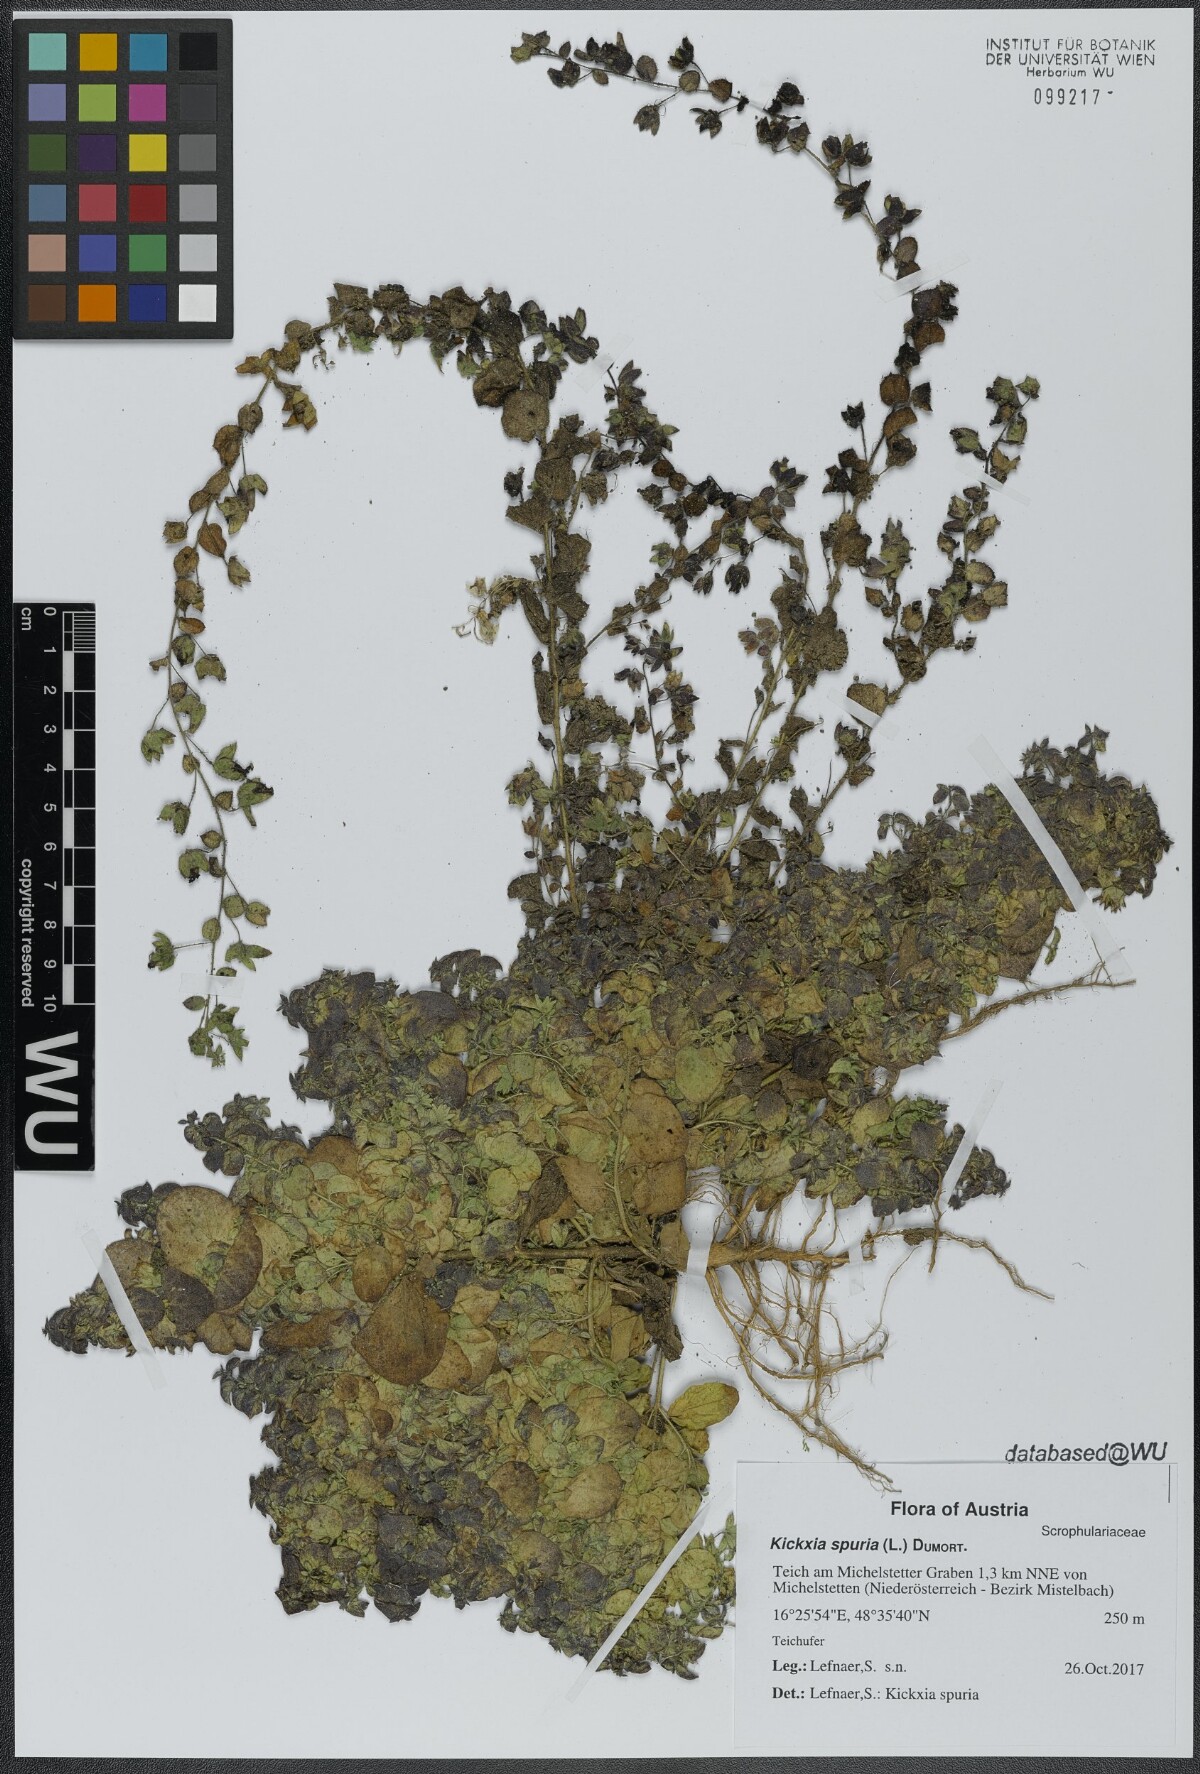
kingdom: Plantae
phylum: Tracheophyta
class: Magnoliopsida
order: Lamiales
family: Plantaginaceae
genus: Kickxia
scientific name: Kickxia spuria
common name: Round-leaved fluellen
